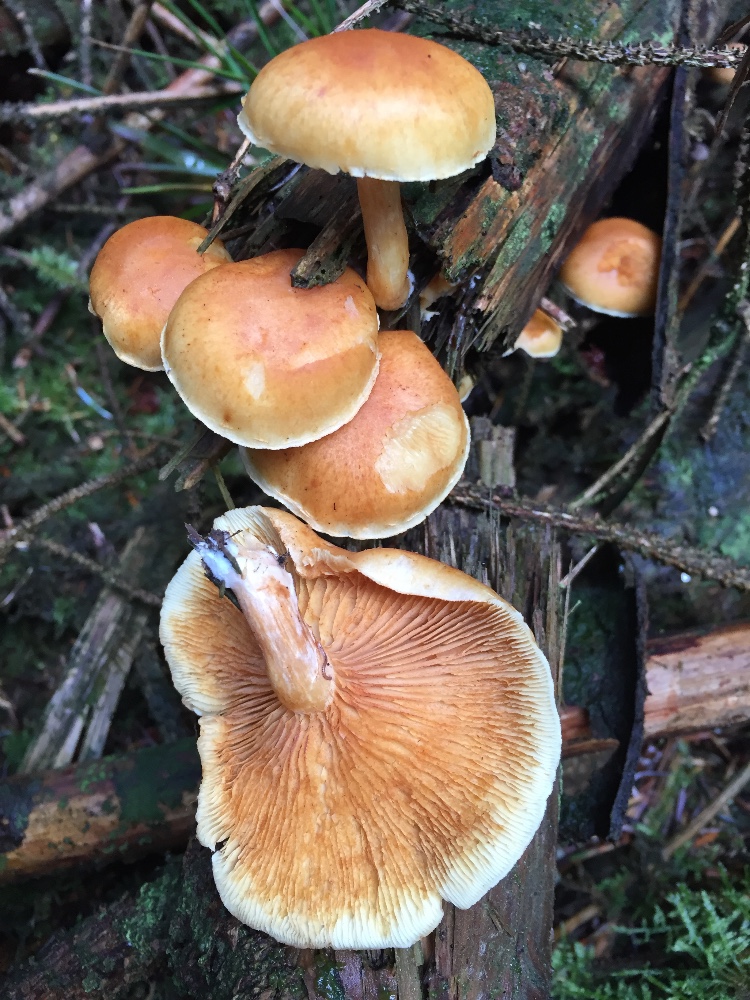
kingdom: Fungi
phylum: Basidiomycota
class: Agaricomycetes
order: Agaricales
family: Hymenogastraceae
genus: Gymnopilus
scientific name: Gymnopilus penetrans
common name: plettet flammehat
